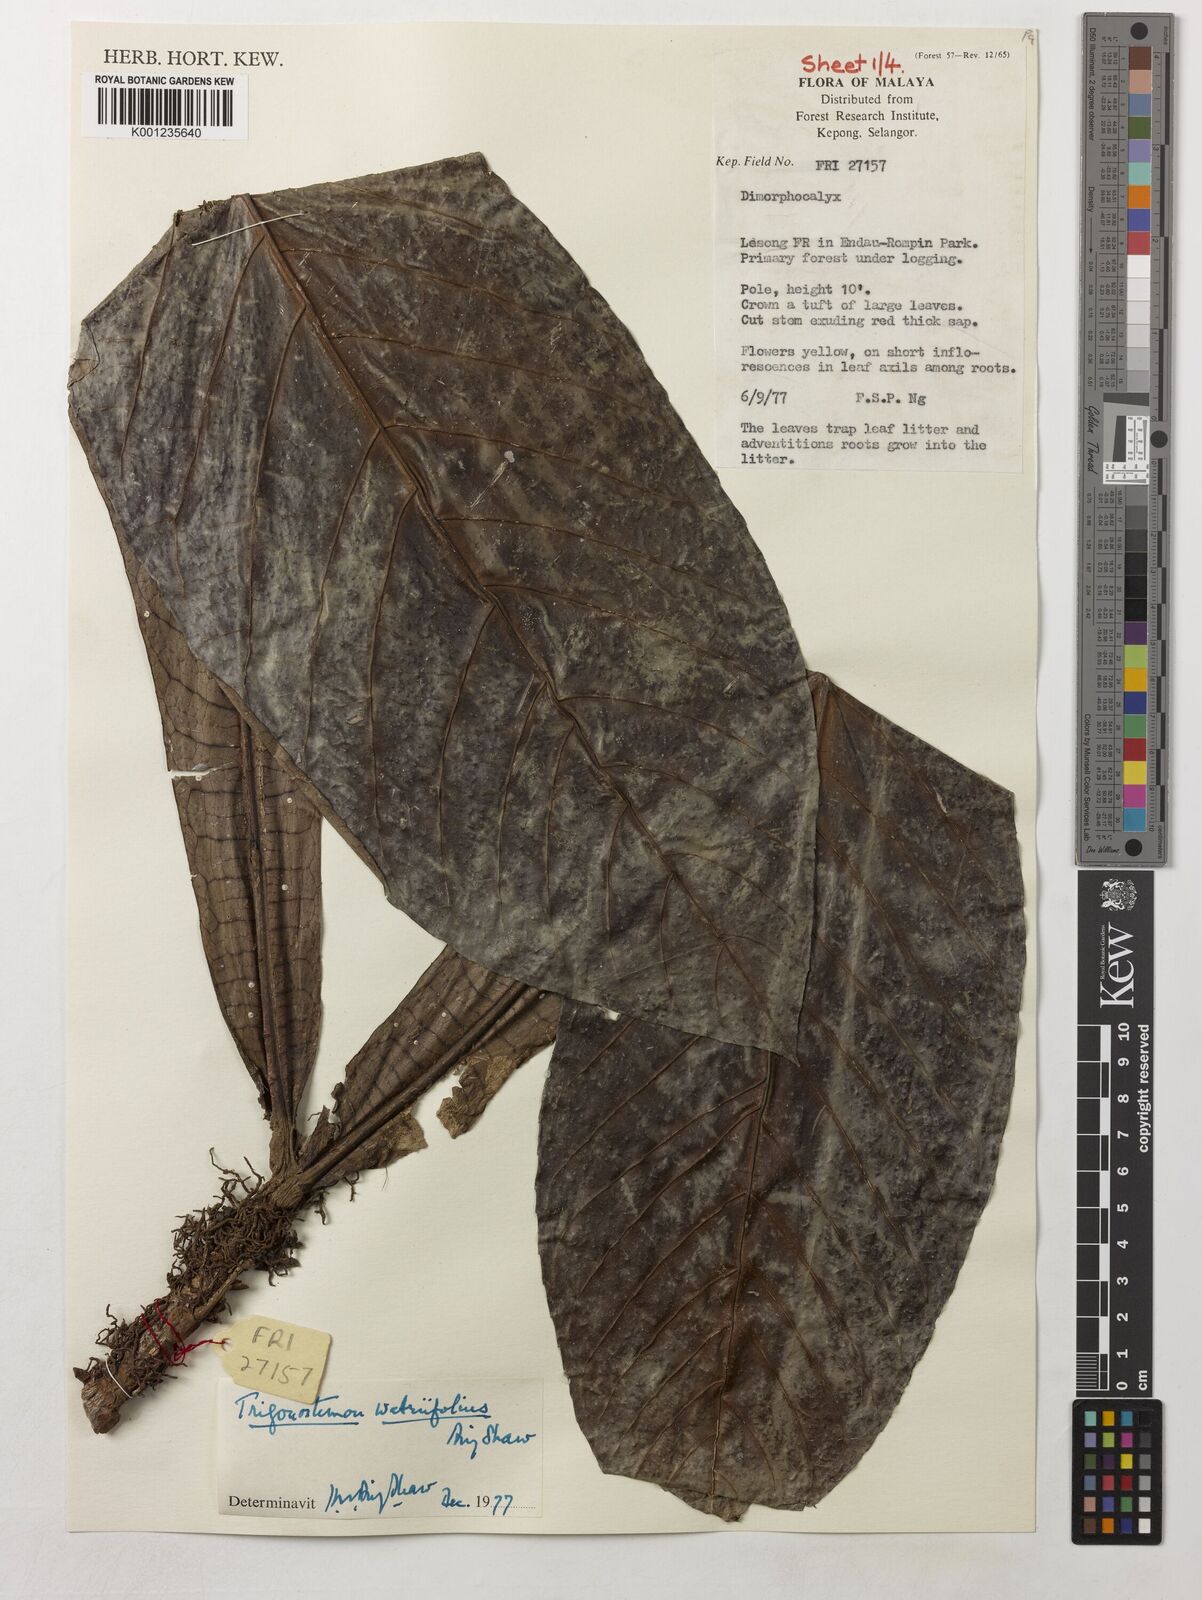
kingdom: Plantae
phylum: Tracheophyta
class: Magnoliopsida
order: Malpighiales
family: Euphorbiaceae
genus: Trigonostemon
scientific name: Trigonostemon wetriifolius
